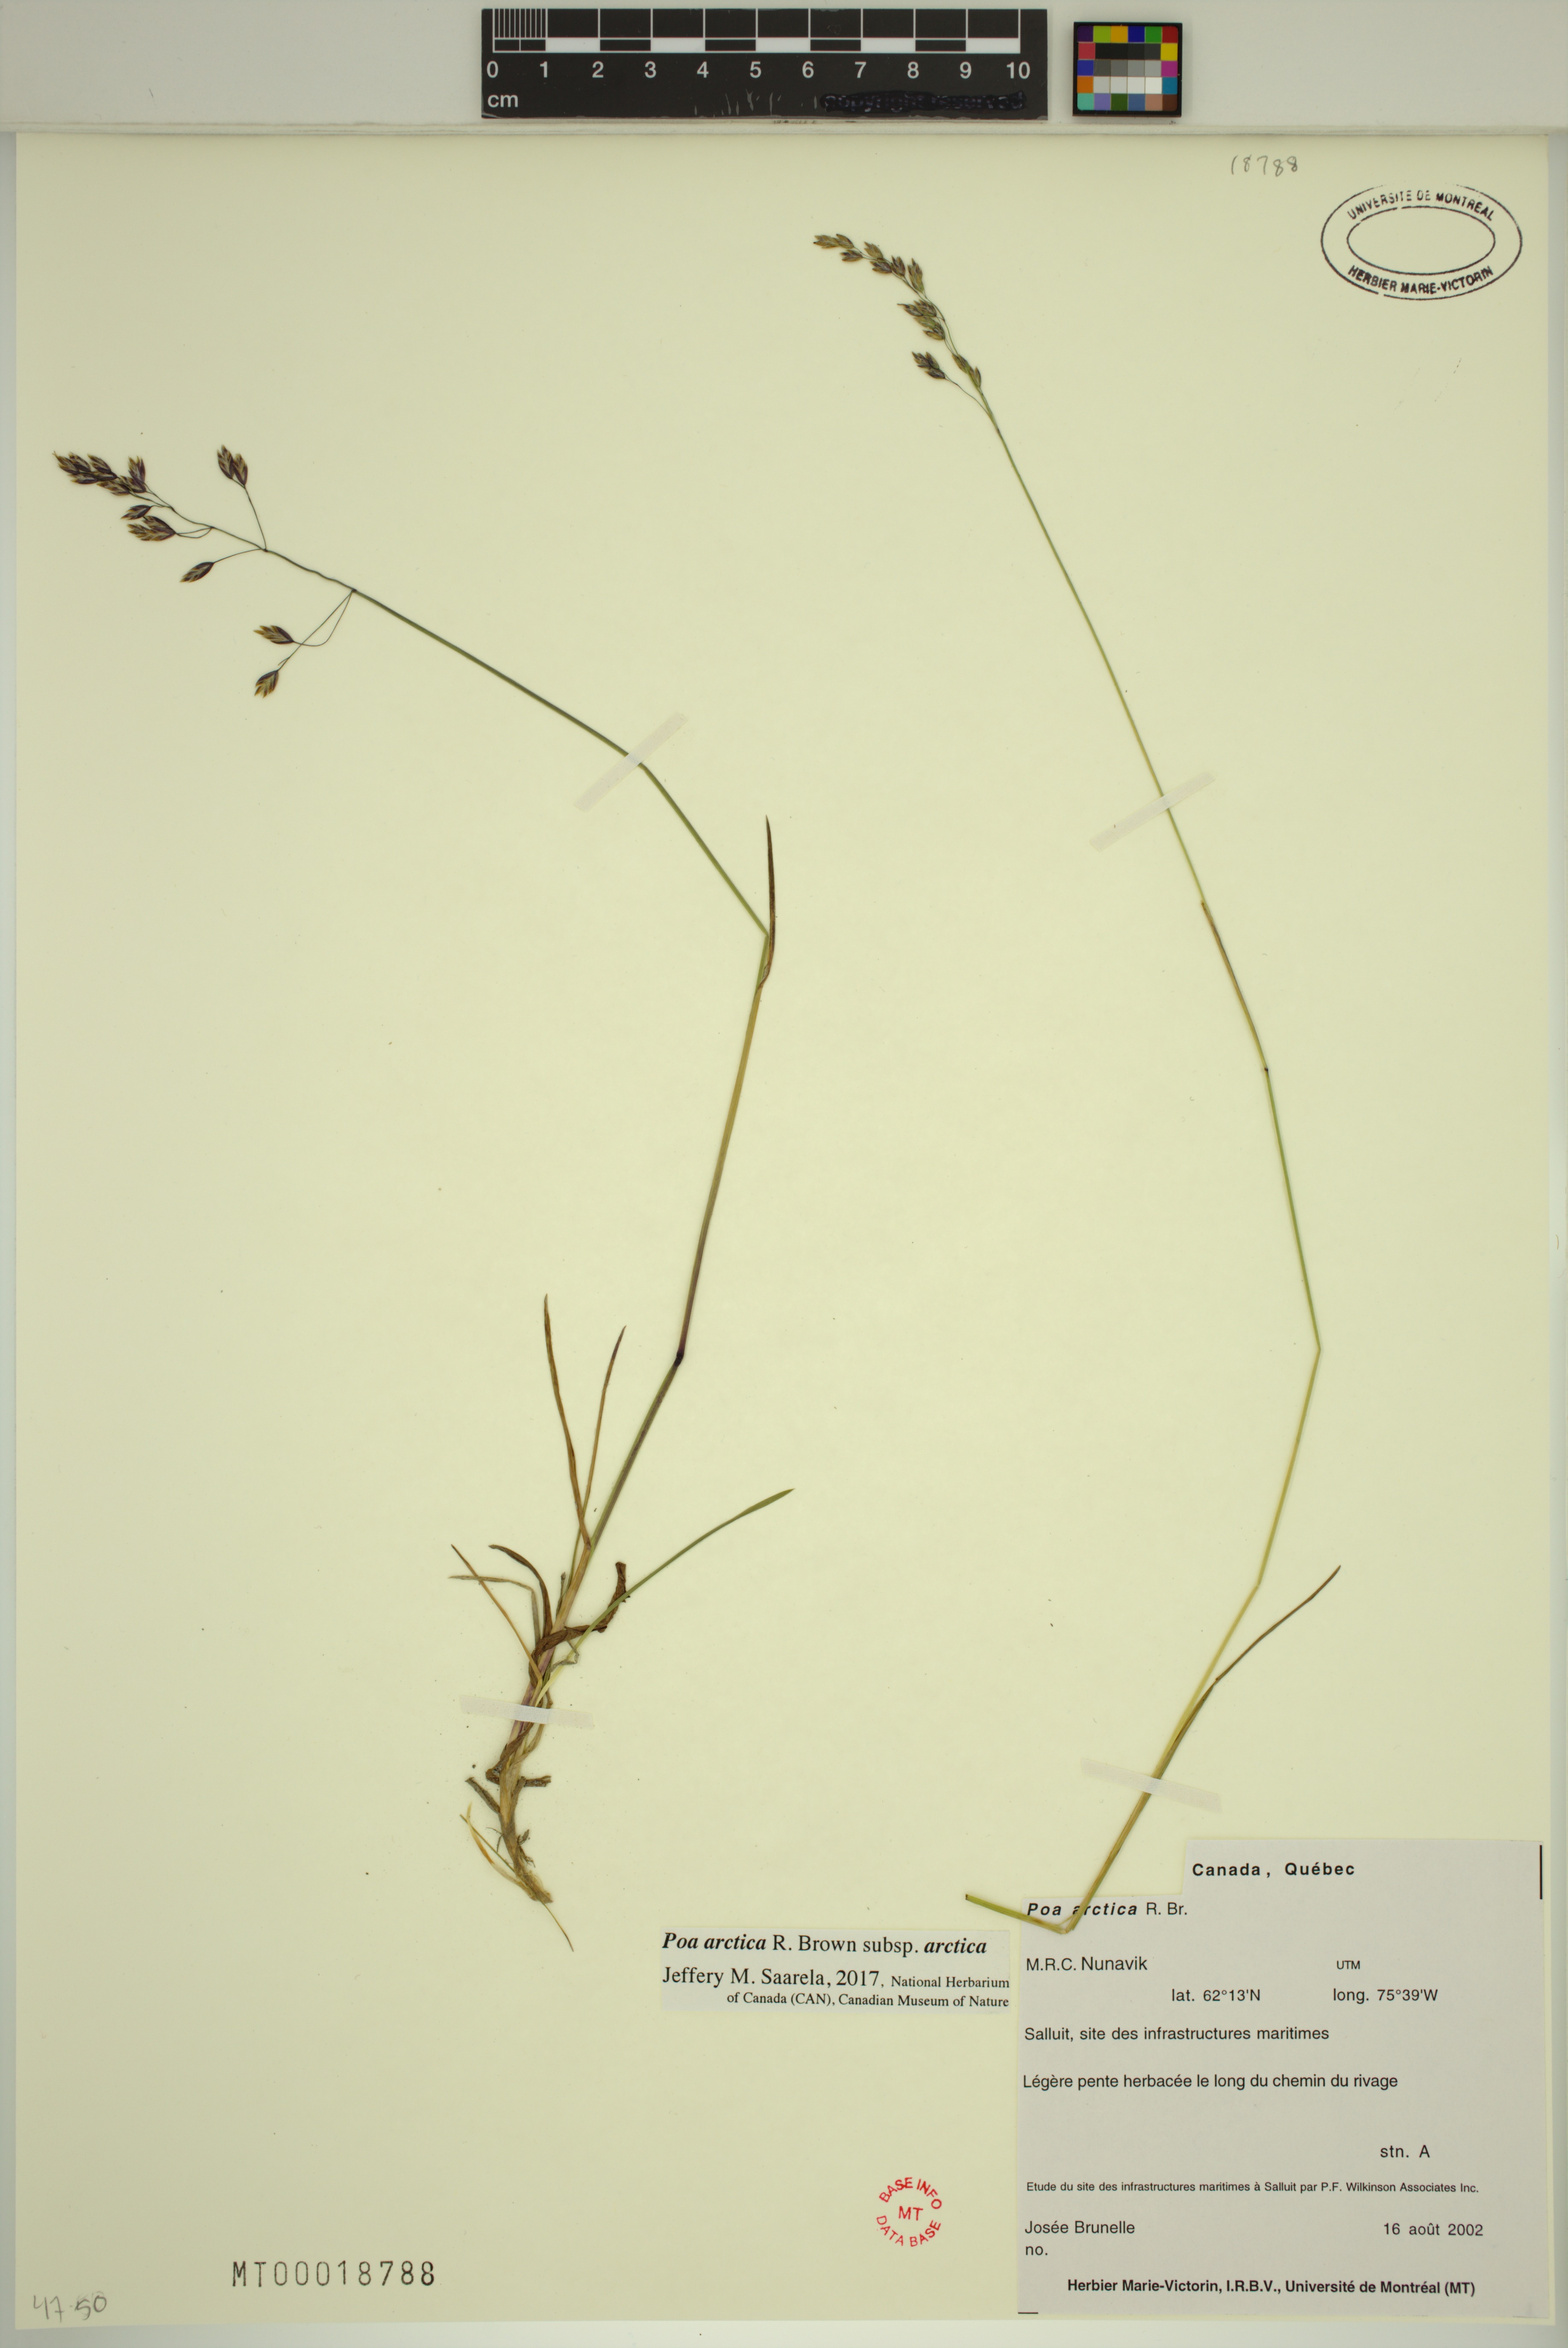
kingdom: Plantae
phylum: Tracheophyta
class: Liliopsida
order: Poales
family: Poaceae
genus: Poa
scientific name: Poa arctica
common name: Arctic bluegrass
